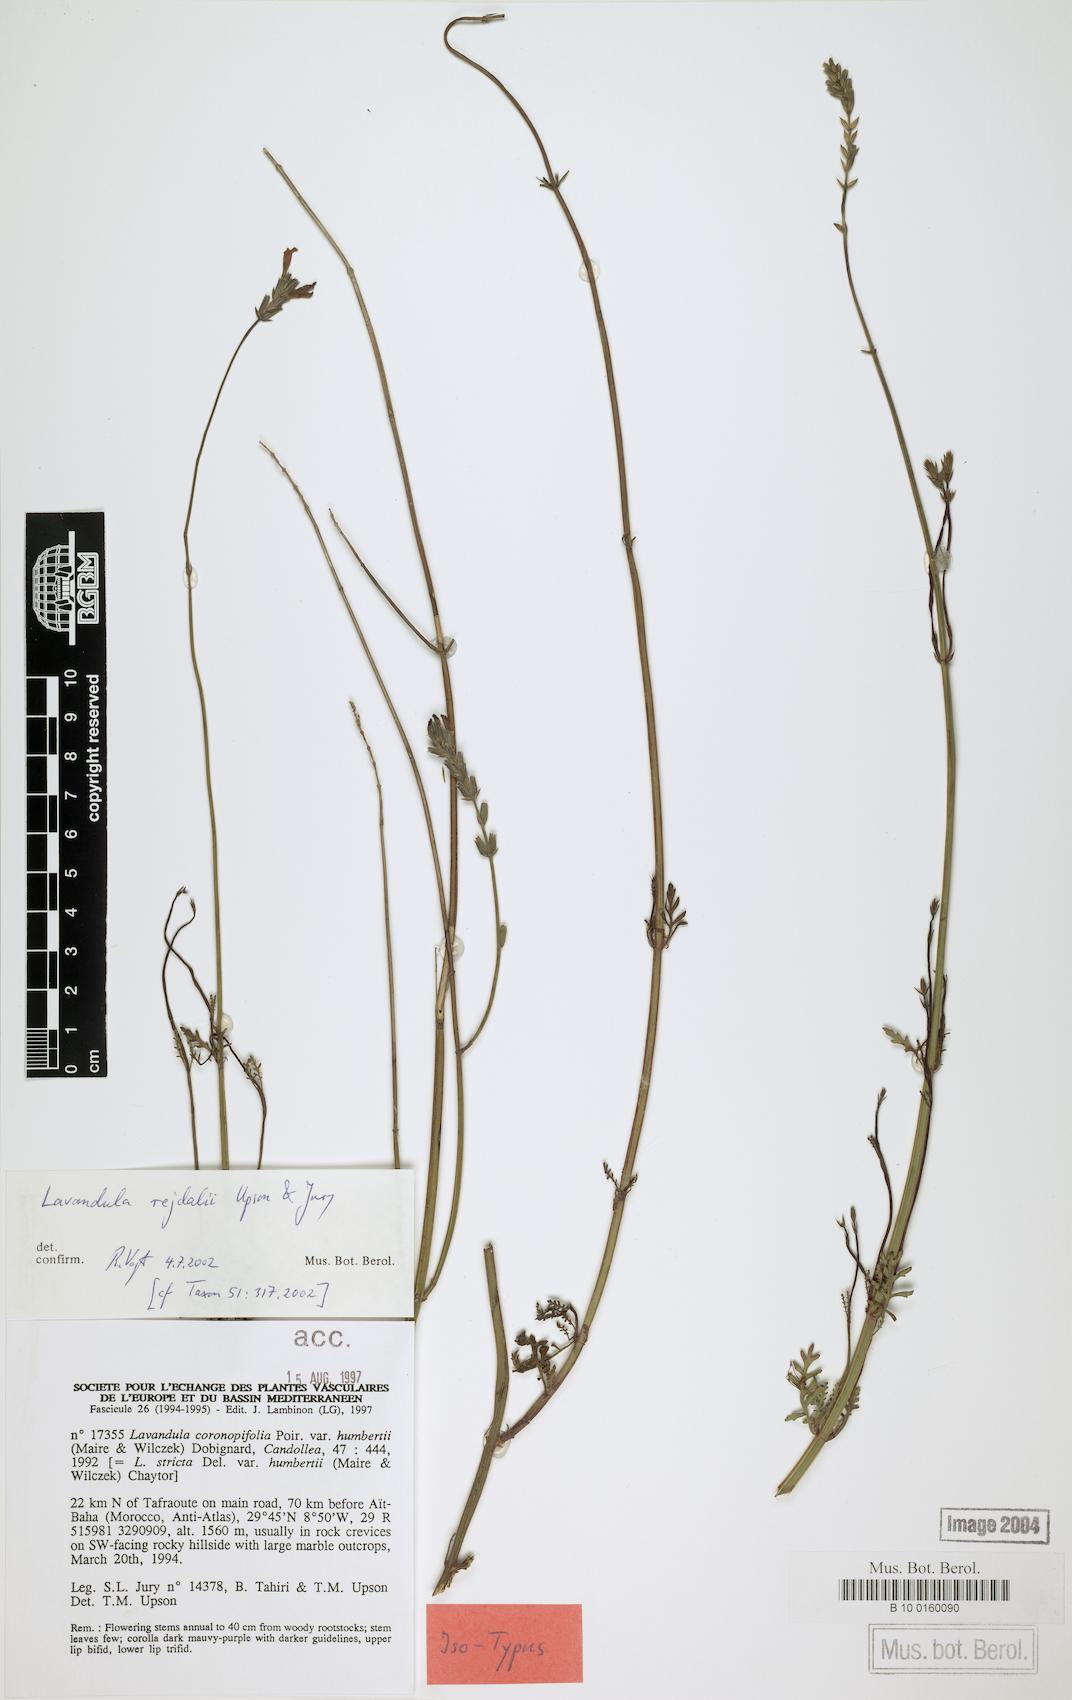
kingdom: Plantae
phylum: Tracheophyta
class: Magnoliopsida
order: Lamiales
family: Lamiaceae
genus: Lavandula
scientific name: Lavandula rejdalii
